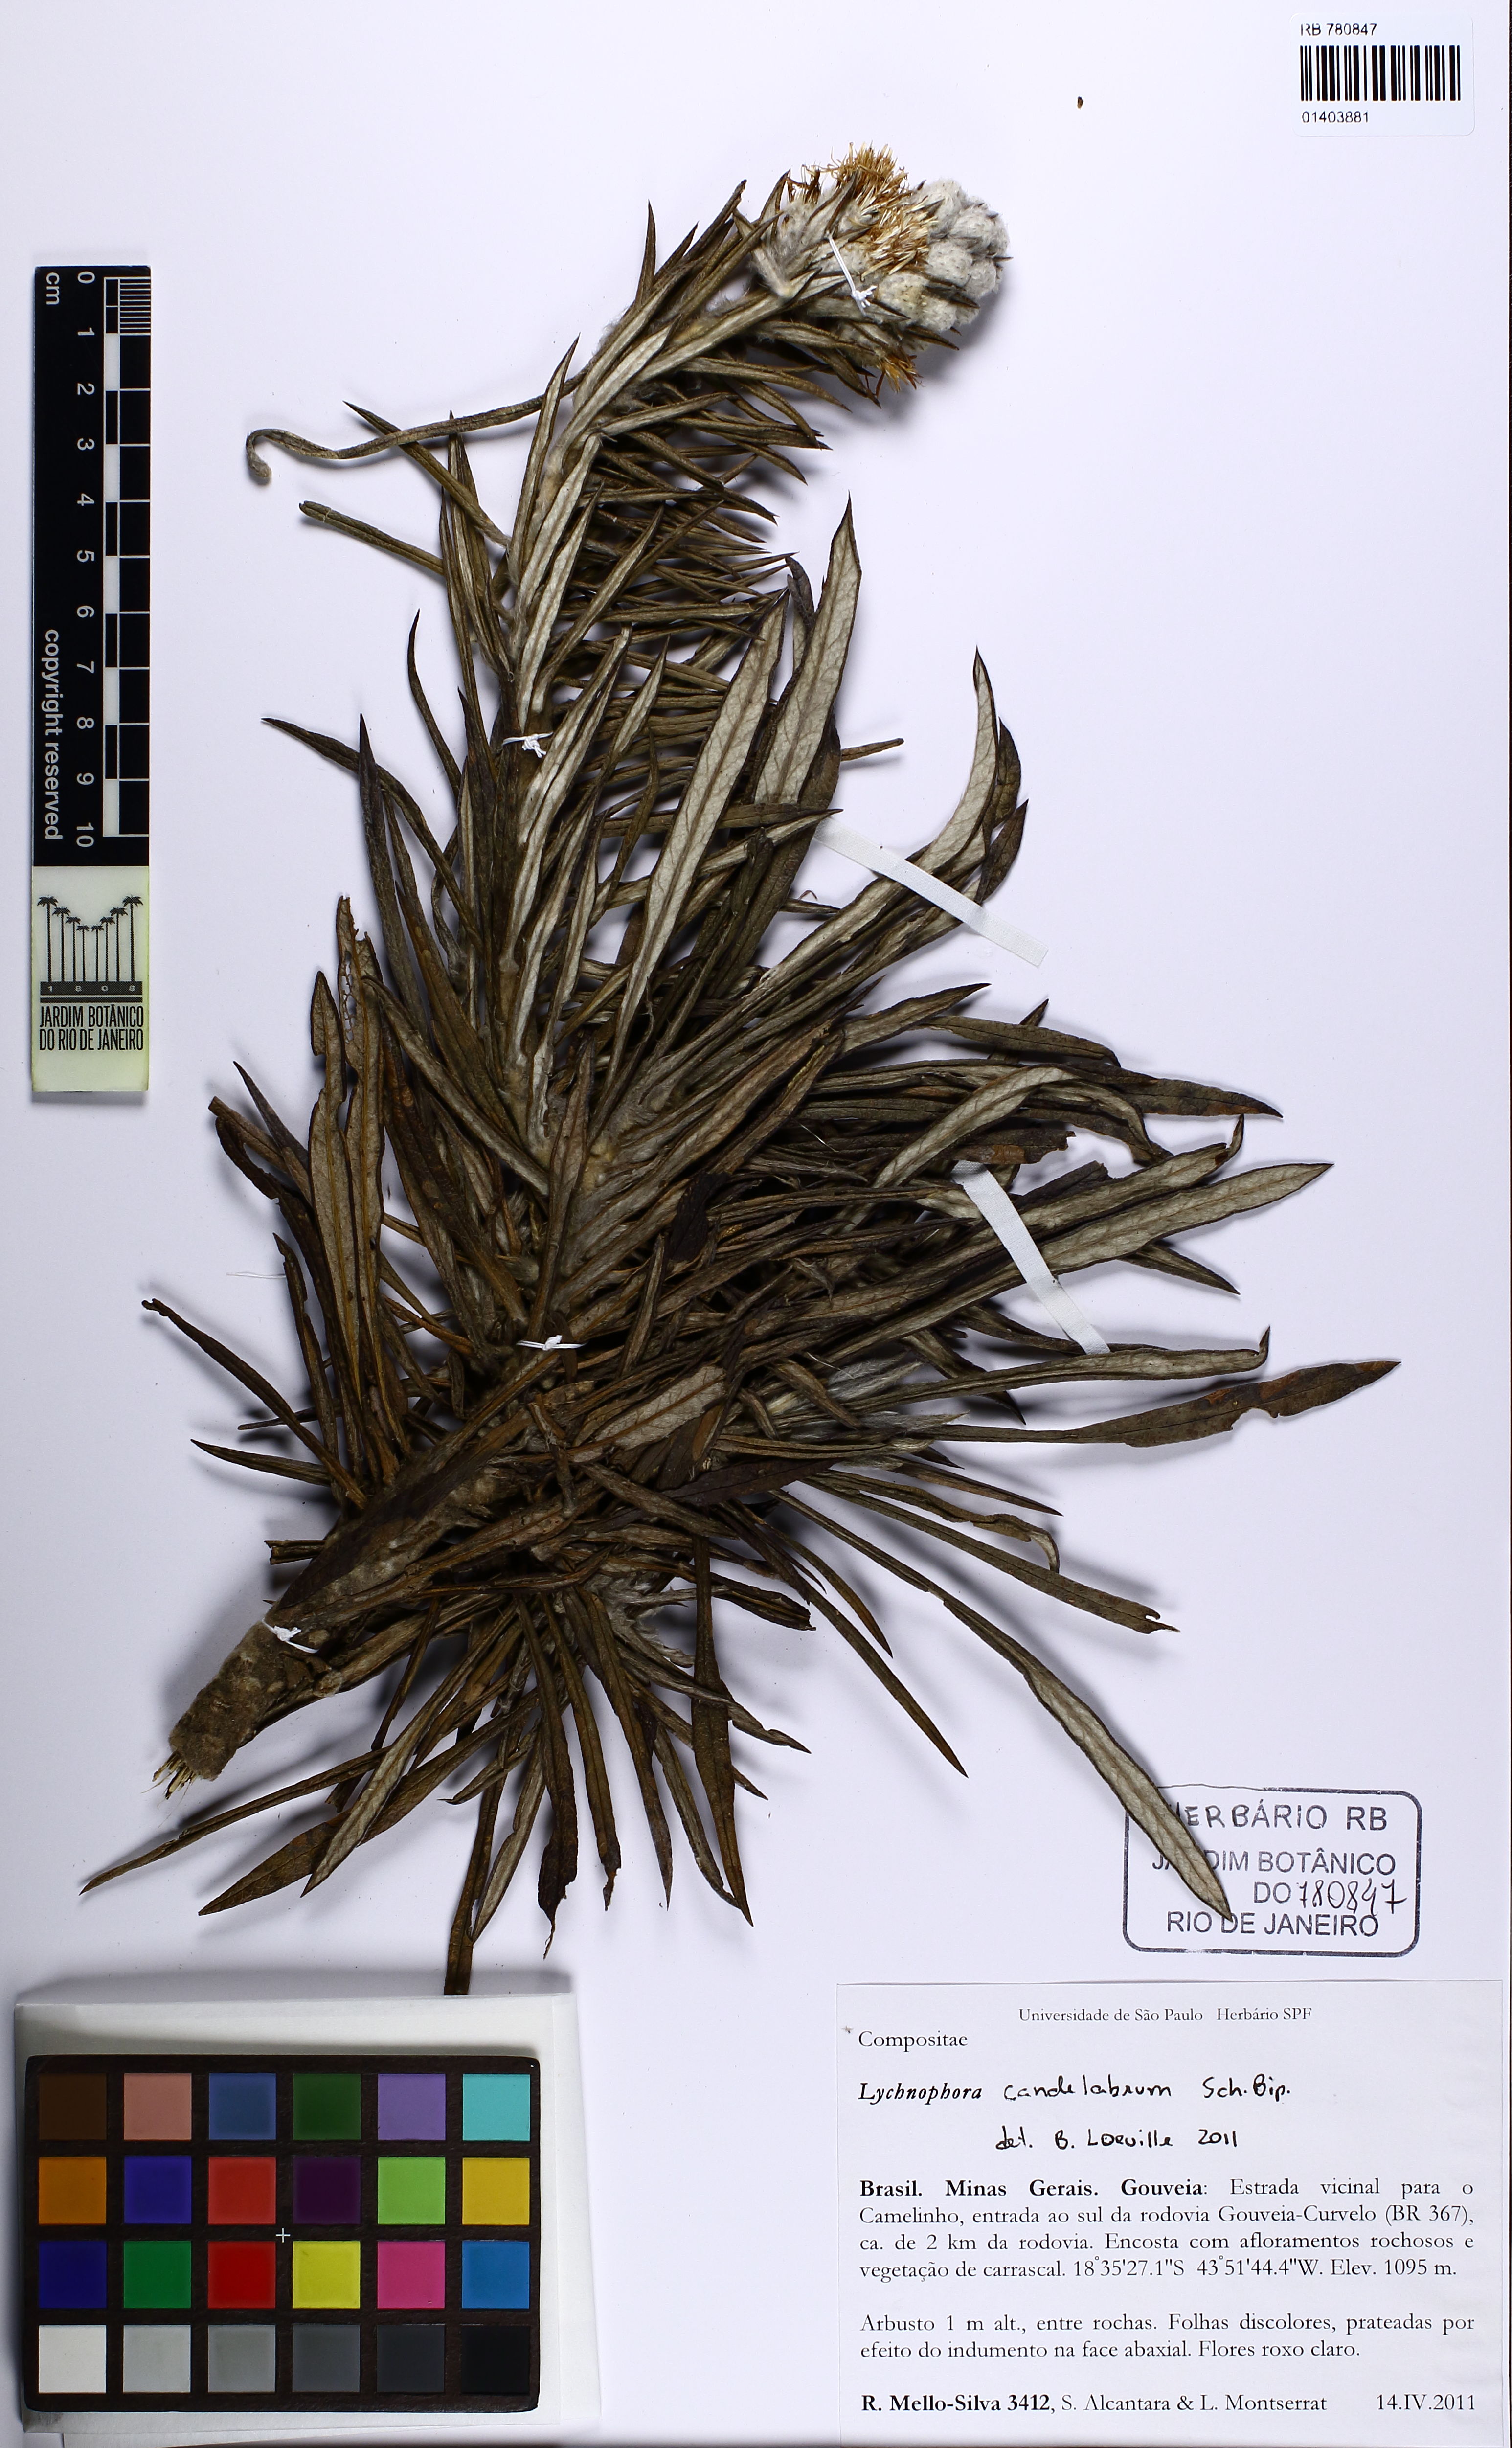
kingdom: Plantae
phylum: Tracheophyta
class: Magnoliopsida
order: Asterales
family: Asteraceae
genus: Lychnophora
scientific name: Lychnophora candelabrum
